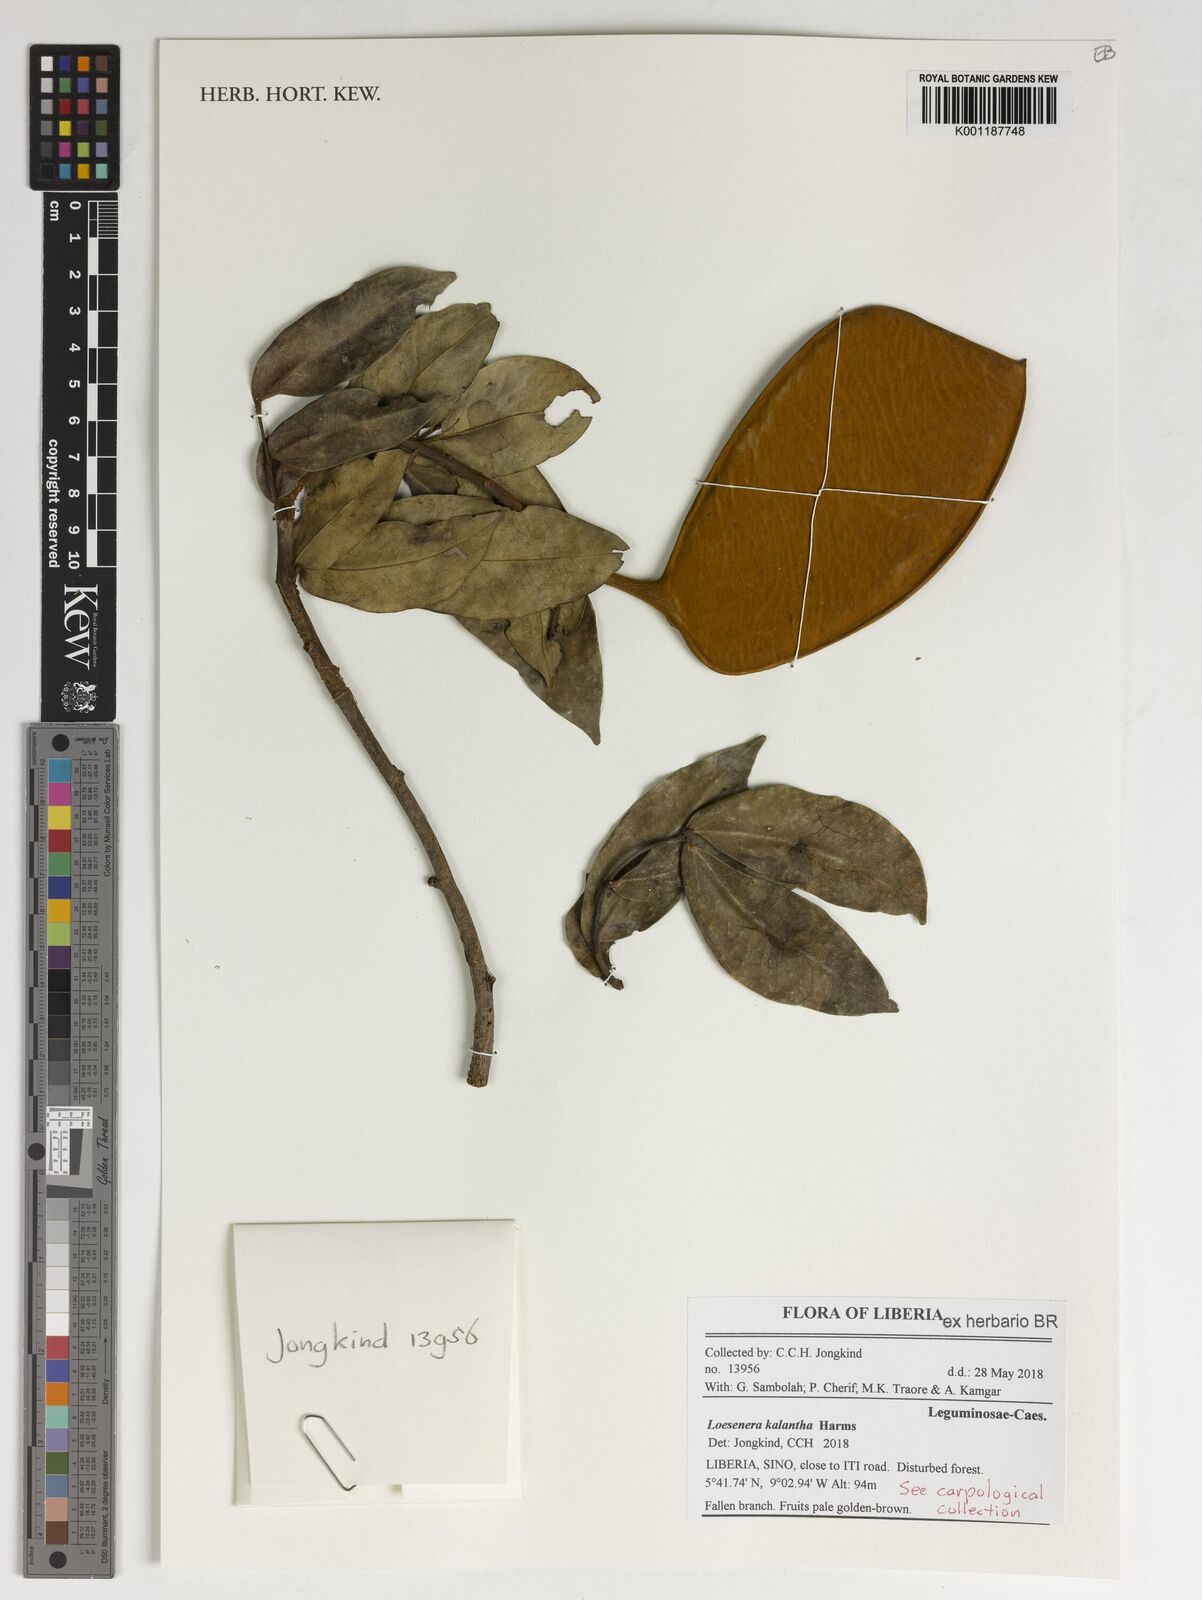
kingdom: Plantae
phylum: Tracheophyta
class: Magnoliopsida
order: Fabales
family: Fabaceae
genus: Loesenera
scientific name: Loesenera kalantha
